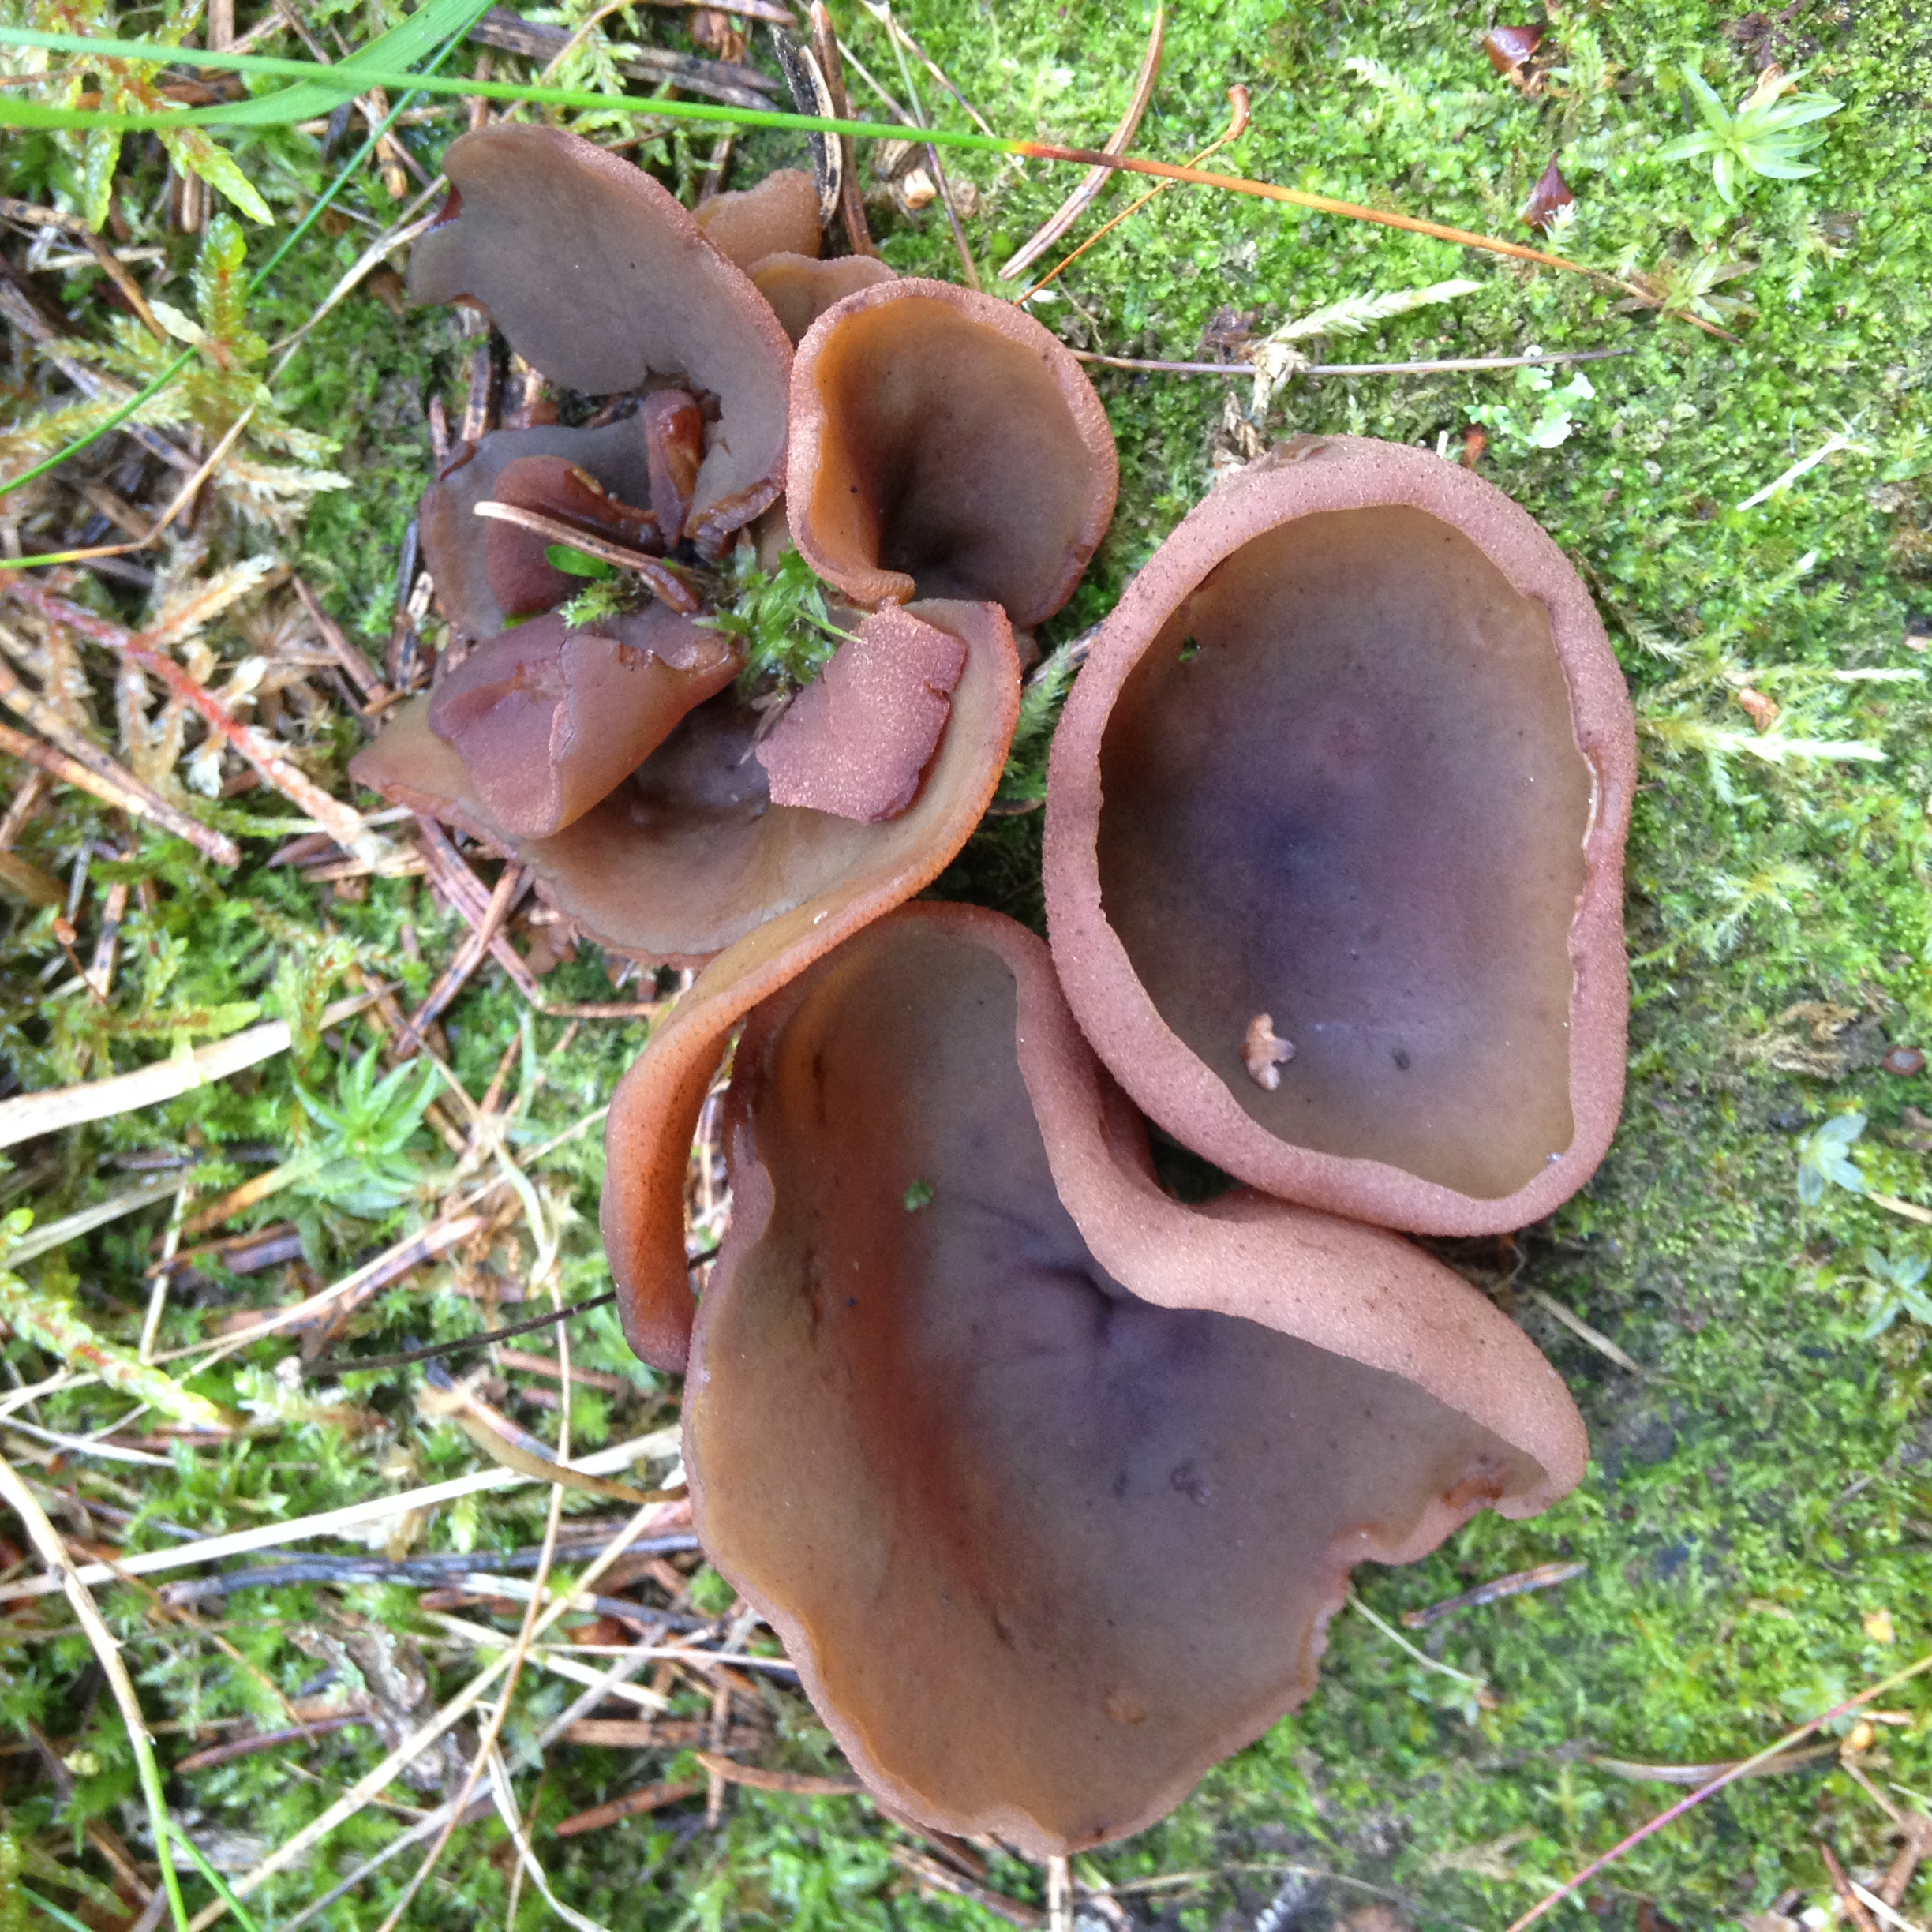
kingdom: Fungi
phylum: Ascomycota
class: Pezizomycetes
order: Pezizales
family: Pezizaceae
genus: Legaliana
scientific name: Legaliana badia
